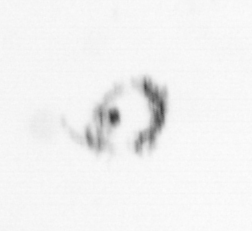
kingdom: Animalia
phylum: Arthropoda
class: Maxillopoda
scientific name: Maxillopoda
